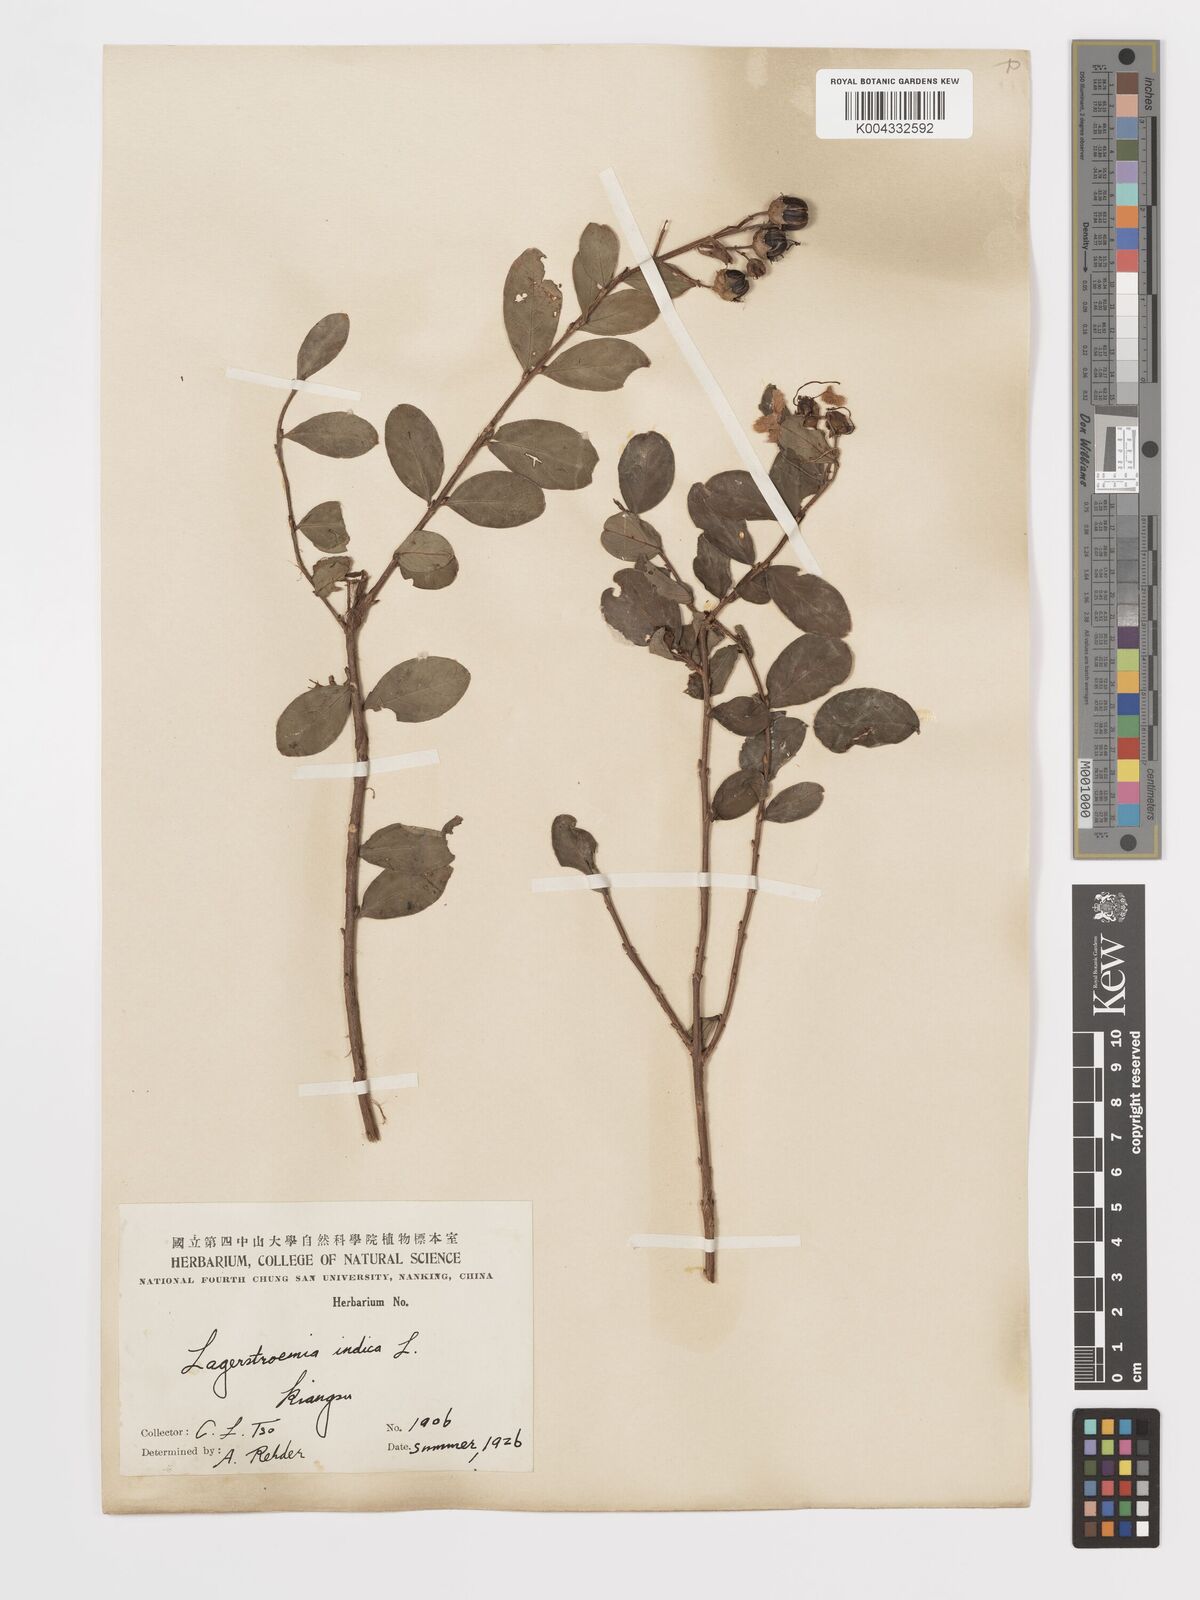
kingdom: Plantae
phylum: Tracheophyta
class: Magnoliopsida
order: Myrtales
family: Lythraceae
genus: Lagerstroemia
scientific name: Lagerstroemia indica
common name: Crape-myrtle
